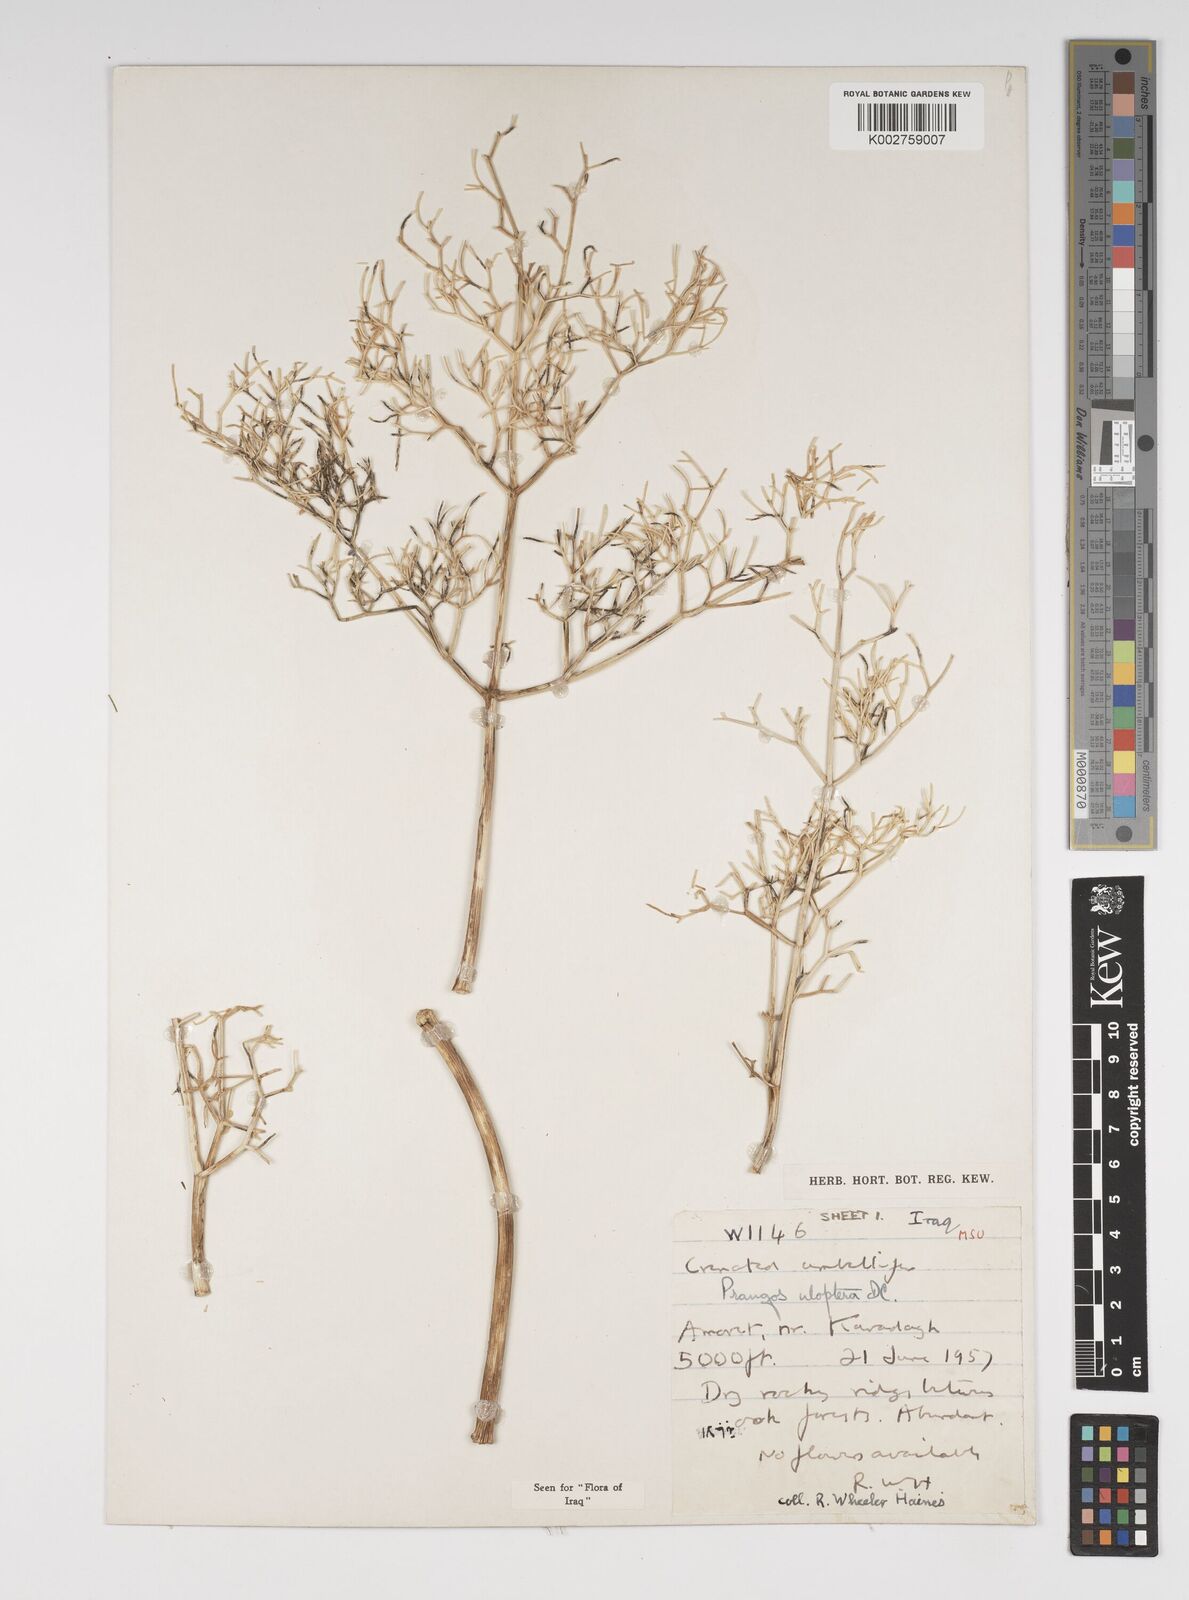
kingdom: Plantae
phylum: Tracheophyta
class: Magnoliopsida
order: Apiales
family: Apiaceae
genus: Prangos
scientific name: Prangos uloptera
